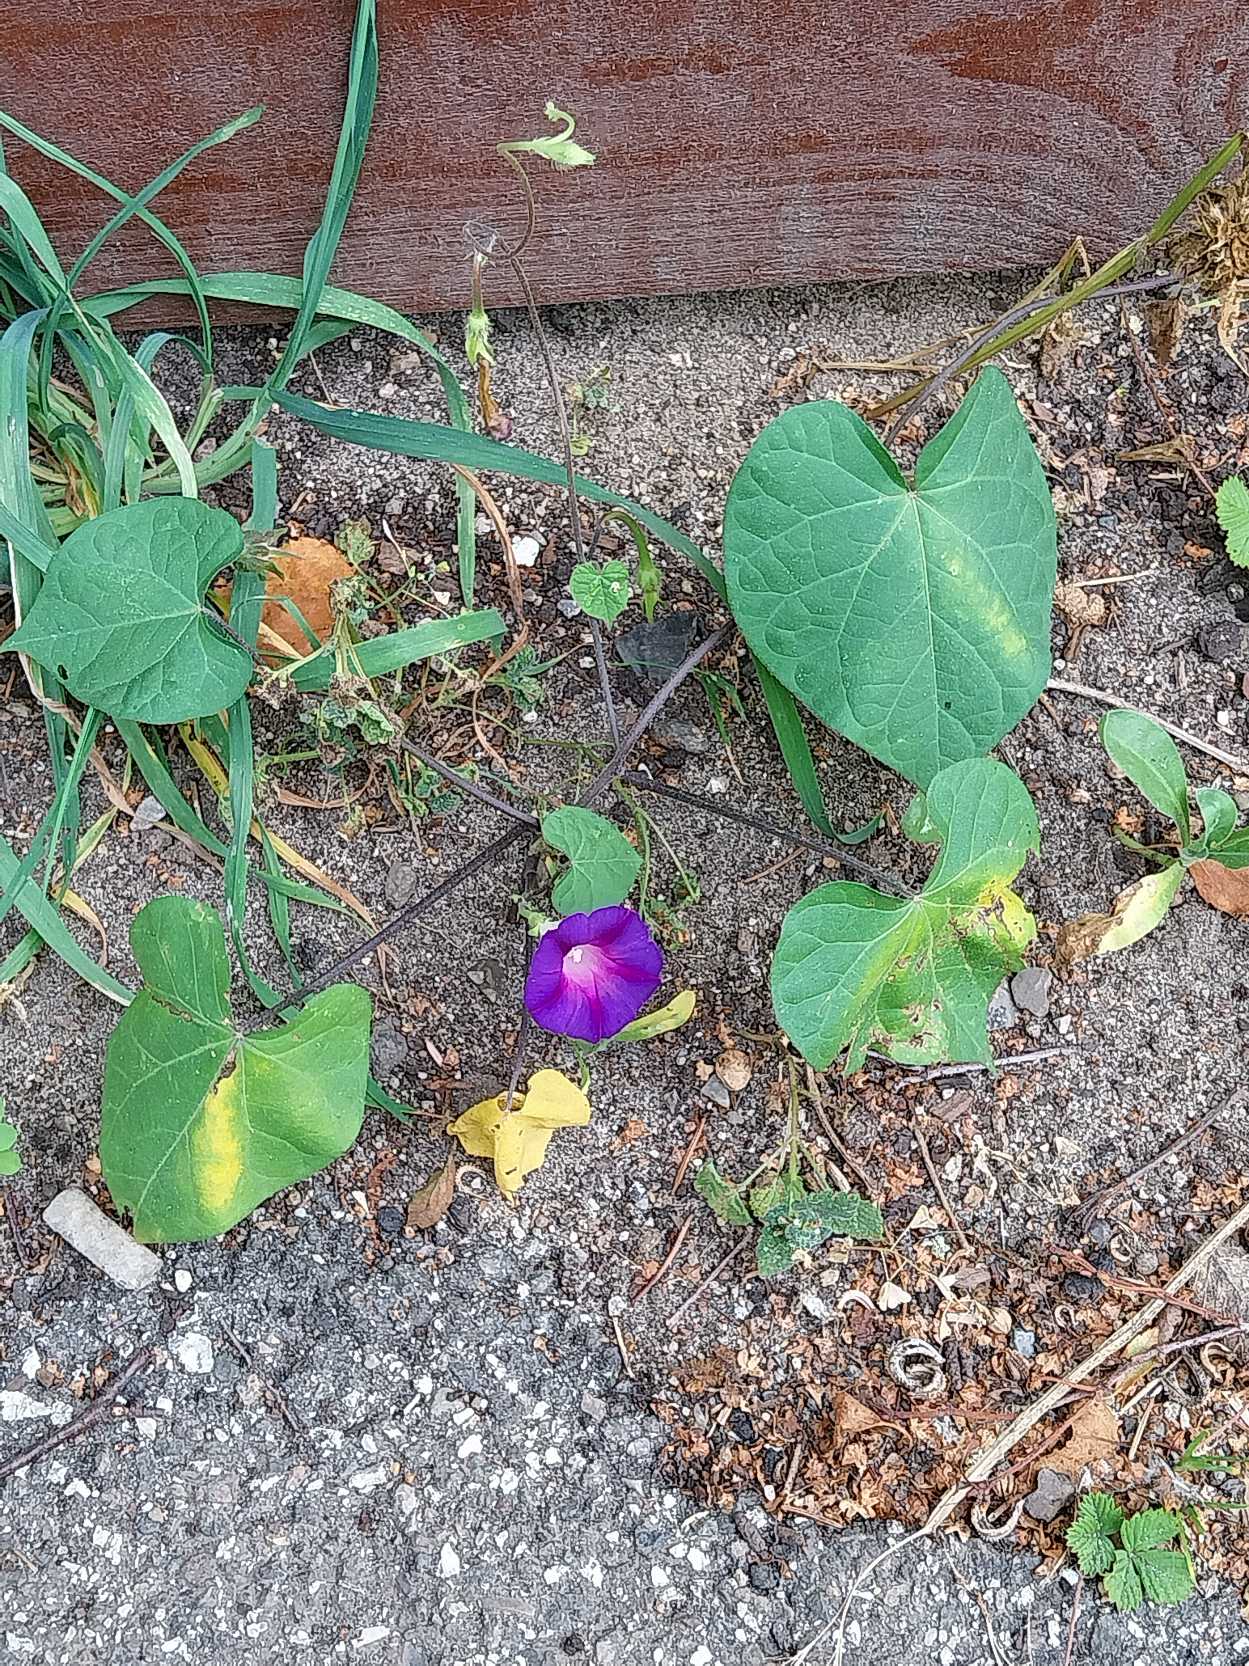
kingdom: Plantae
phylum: Tracheophyta
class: Magnoliopsida
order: Solanales
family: Convolvulaceae
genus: Ipomoea
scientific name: Ipomoea purpurea
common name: Rød tragtsnerle
